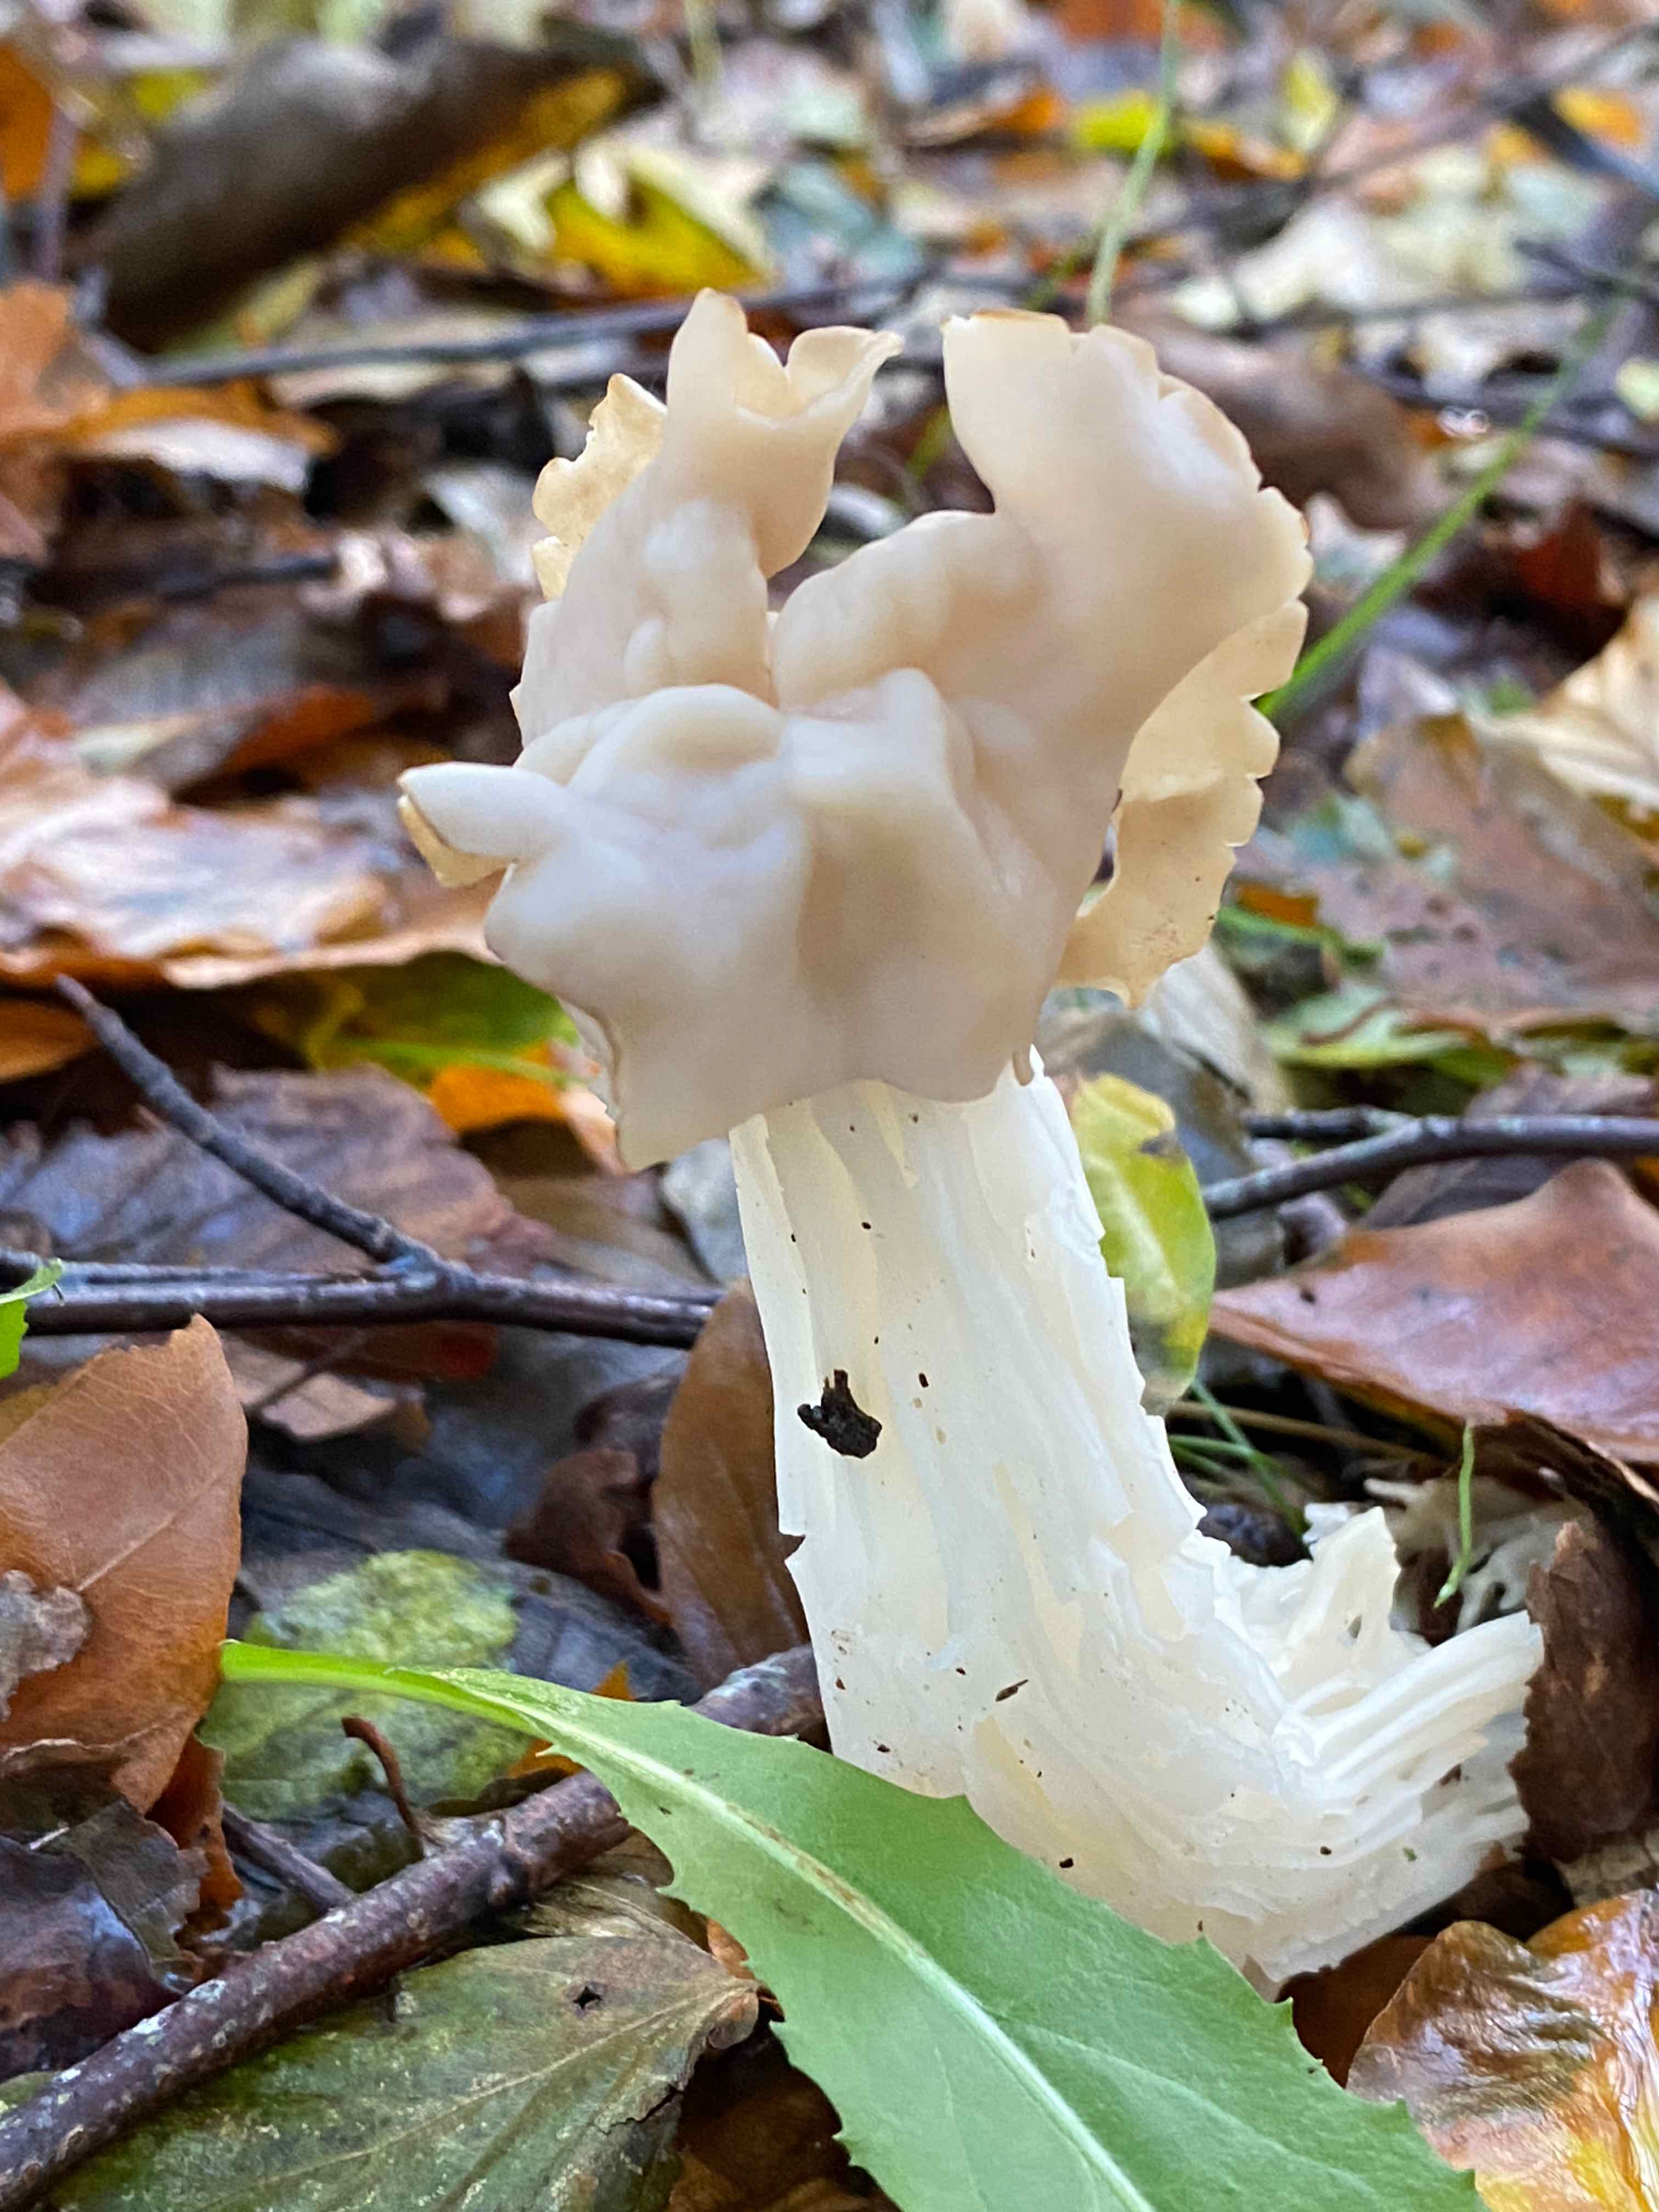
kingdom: Fungi
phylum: Ascomycota
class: Pezizomycetes
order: Pezizales
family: Helvellaceae
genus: Helvella
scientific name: Helvella crispa
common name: kruset foldhat
